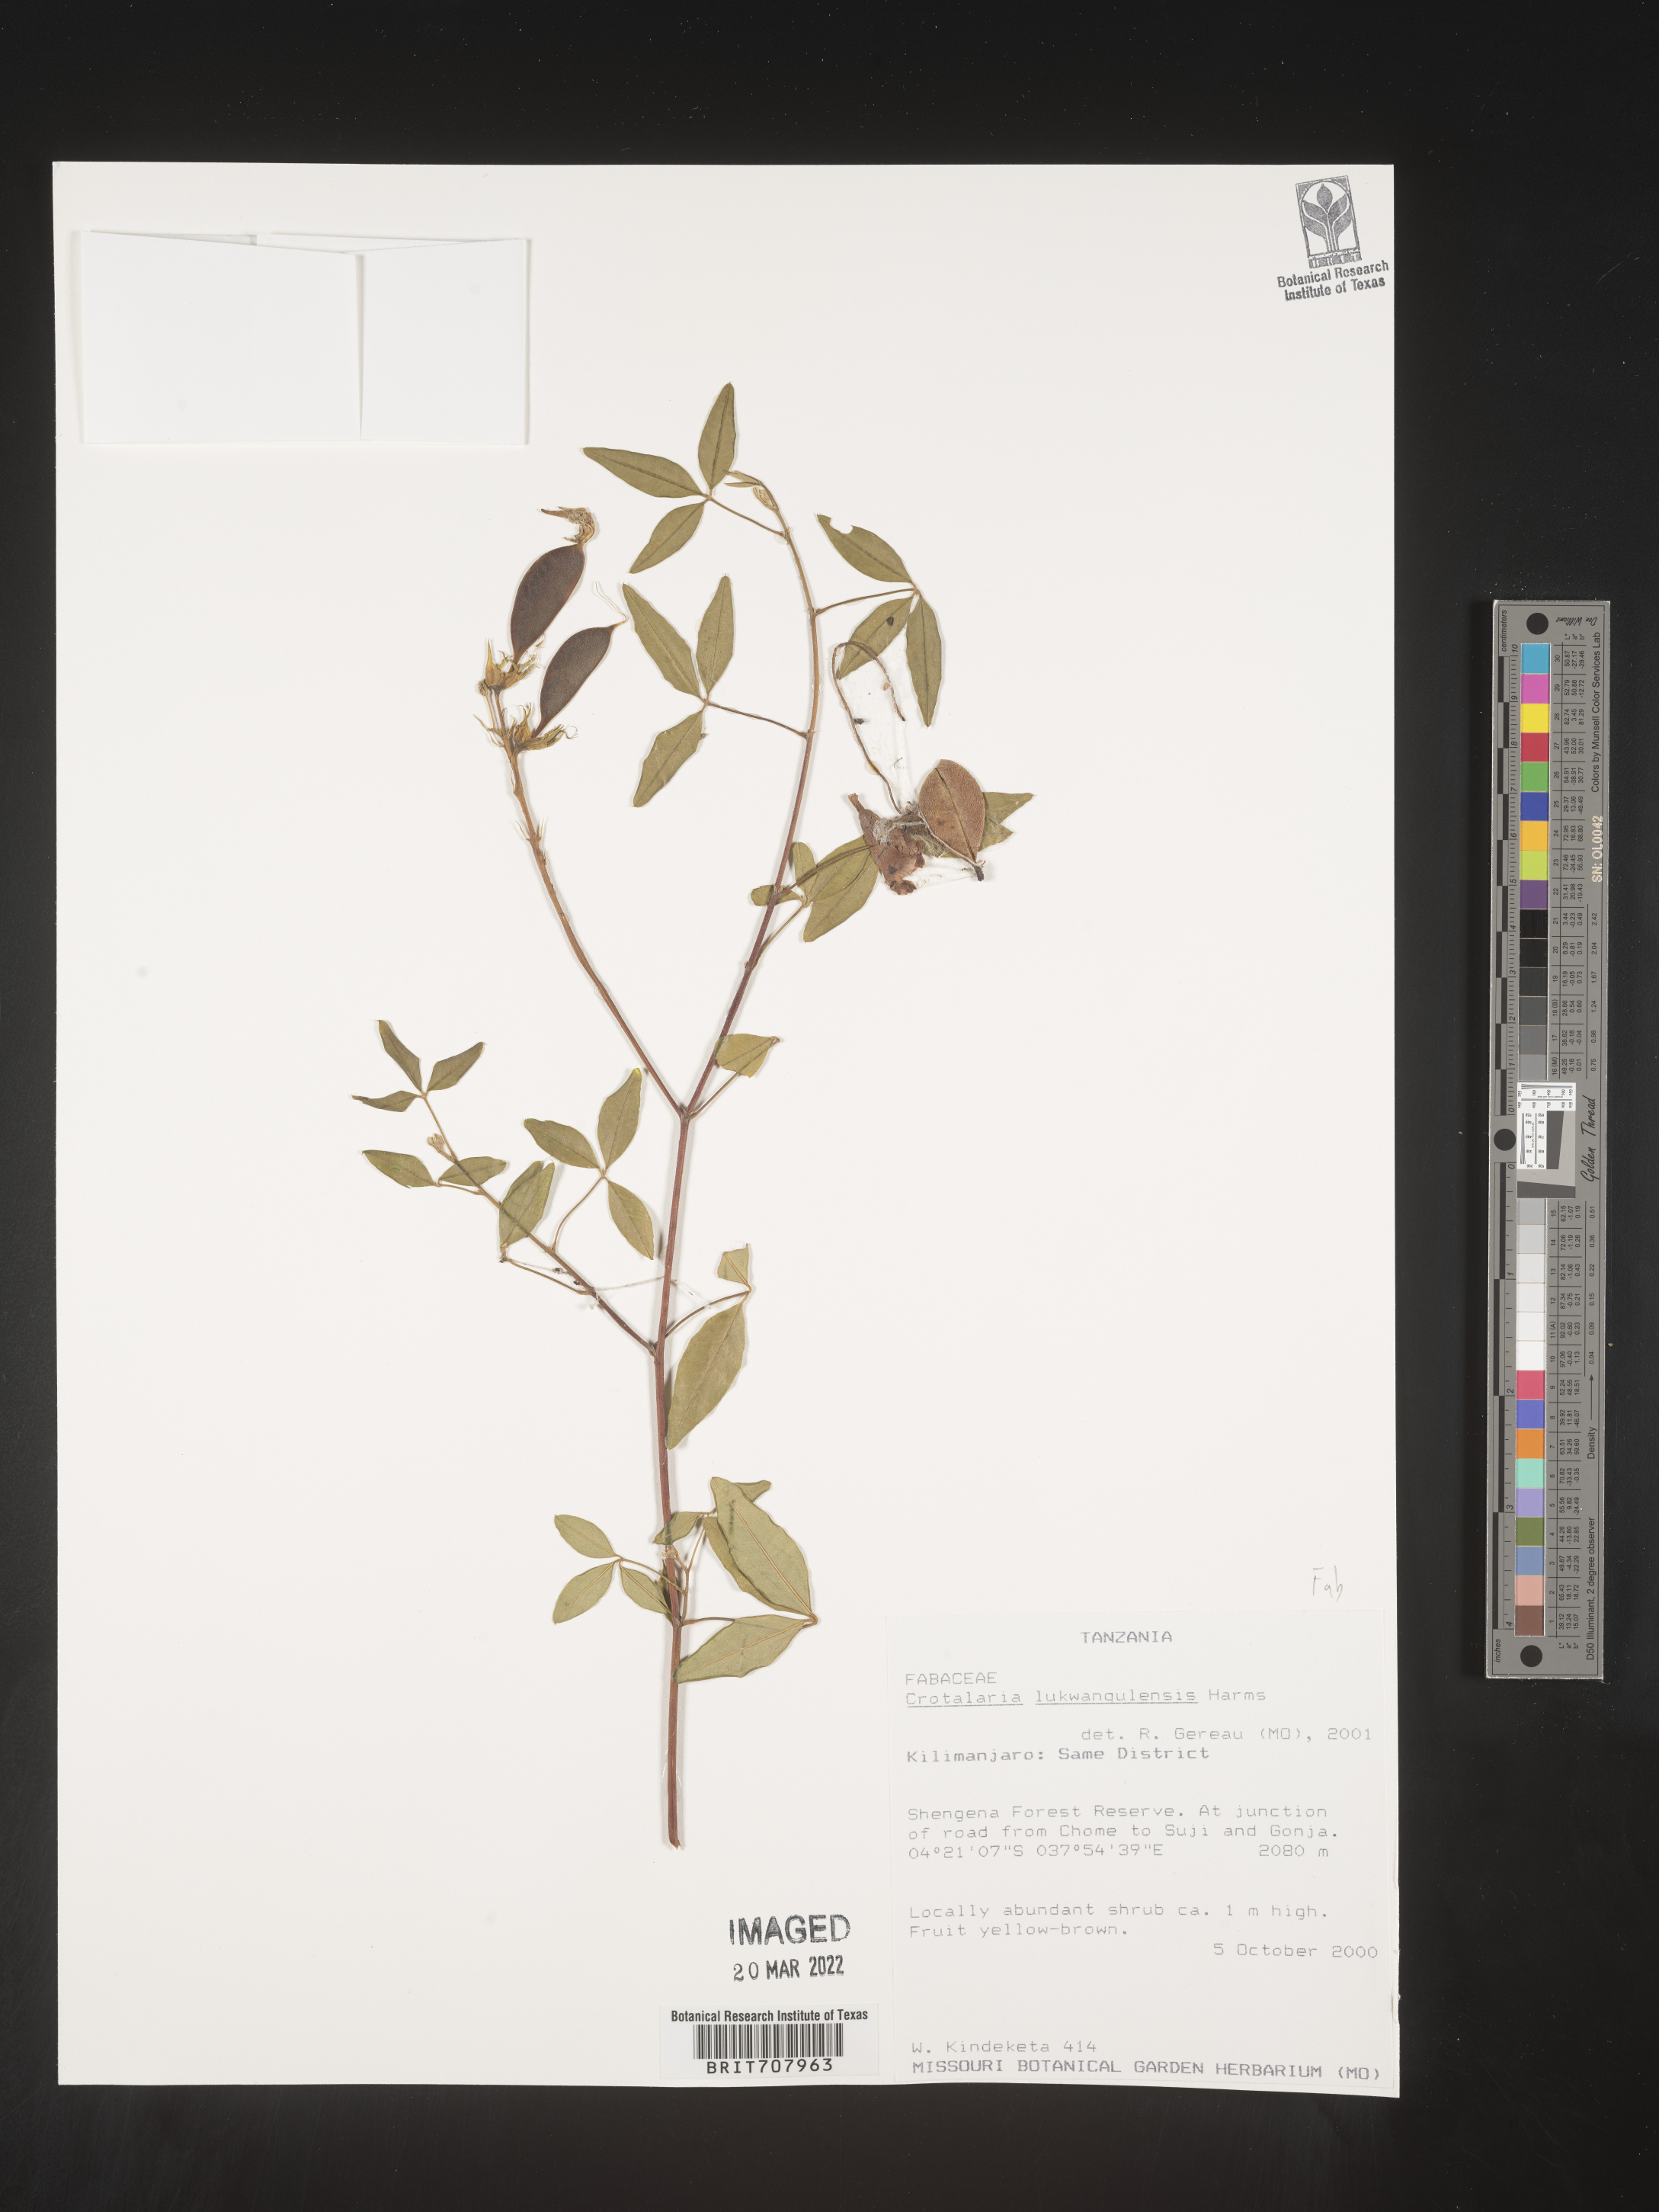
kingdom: Plantae
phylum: Tracheophyta
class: Magnoliopsida
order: Fabales
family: Fabaceae
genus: Crotalaria
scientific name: Crotalaria
